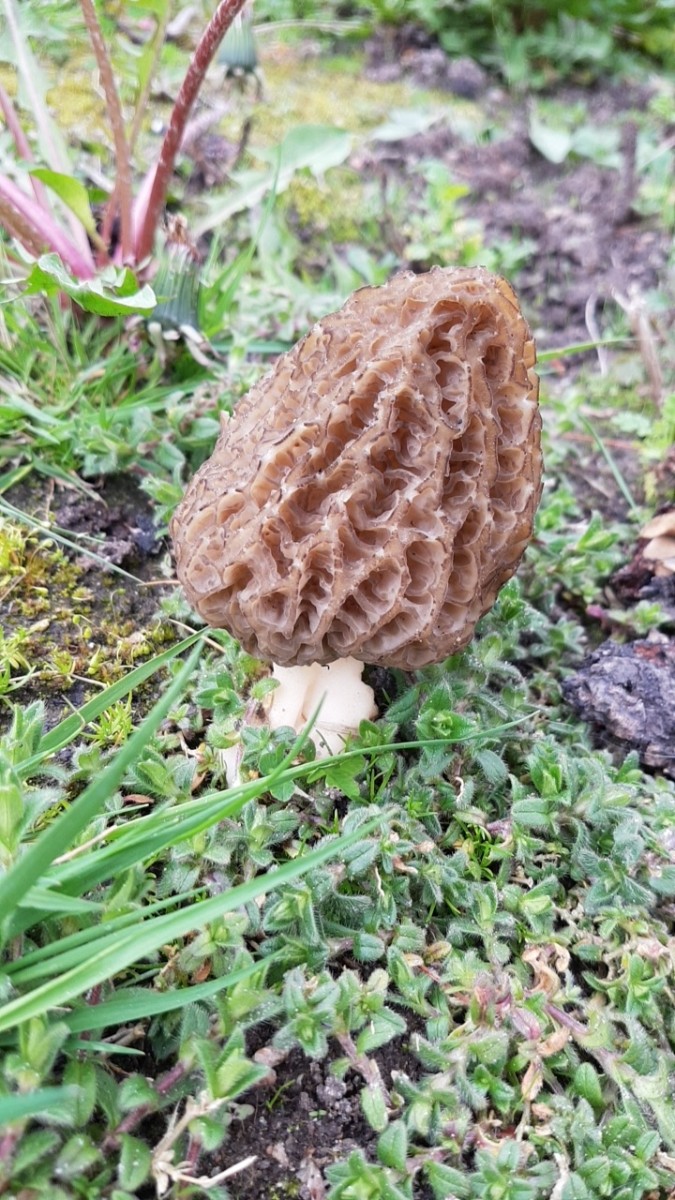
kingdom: Fungi
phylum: Ascomycota
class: Pezizomycetes
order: Pezizales
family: Morchellaceae
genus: Morchella
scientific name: Morchella
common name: morkel
